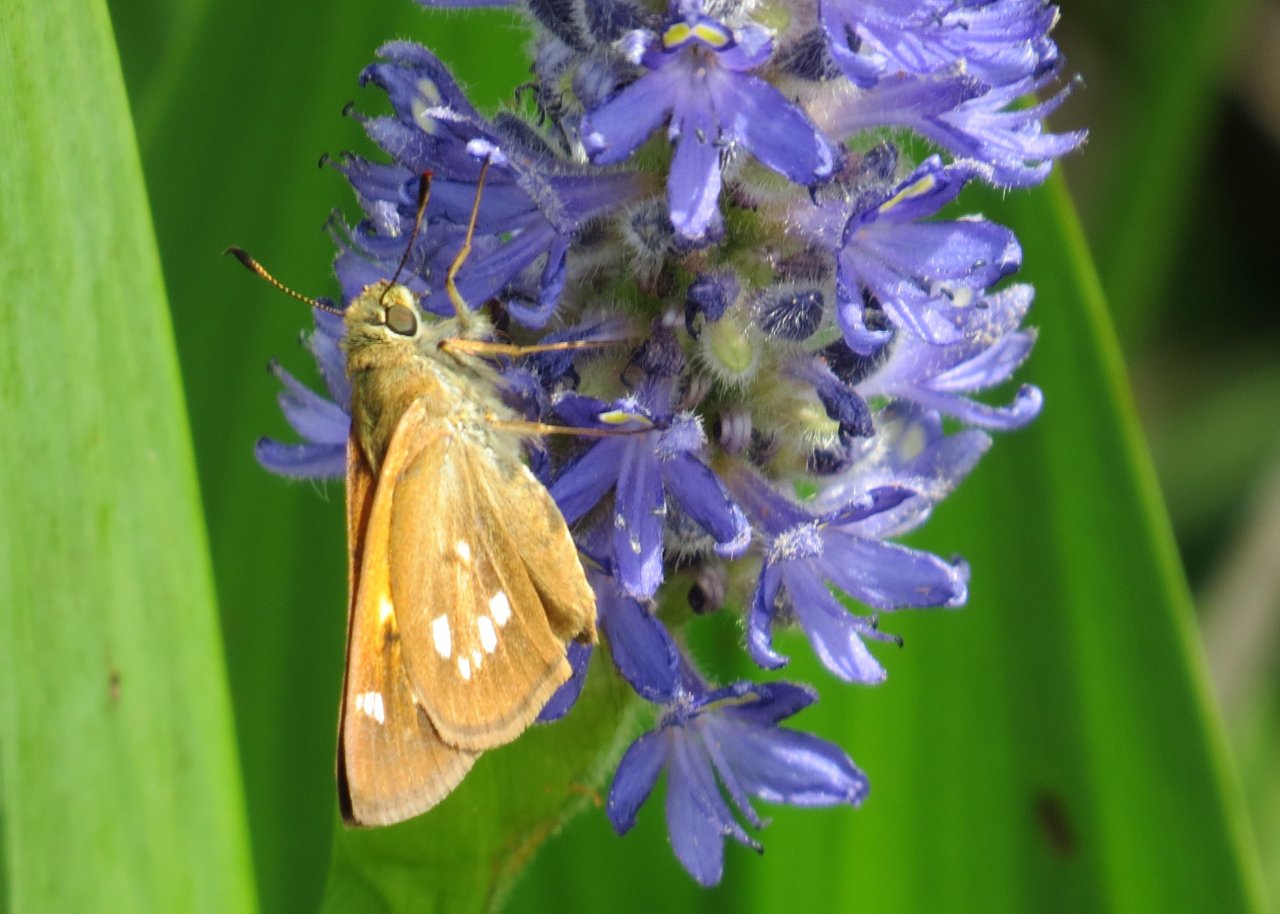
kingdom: Animalia
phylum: Arthropoda
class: Insecta
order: Lepidoptera
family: Hesperiidae
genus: Poanes
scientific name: Poanes viator
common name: Broad-winged Skipper
